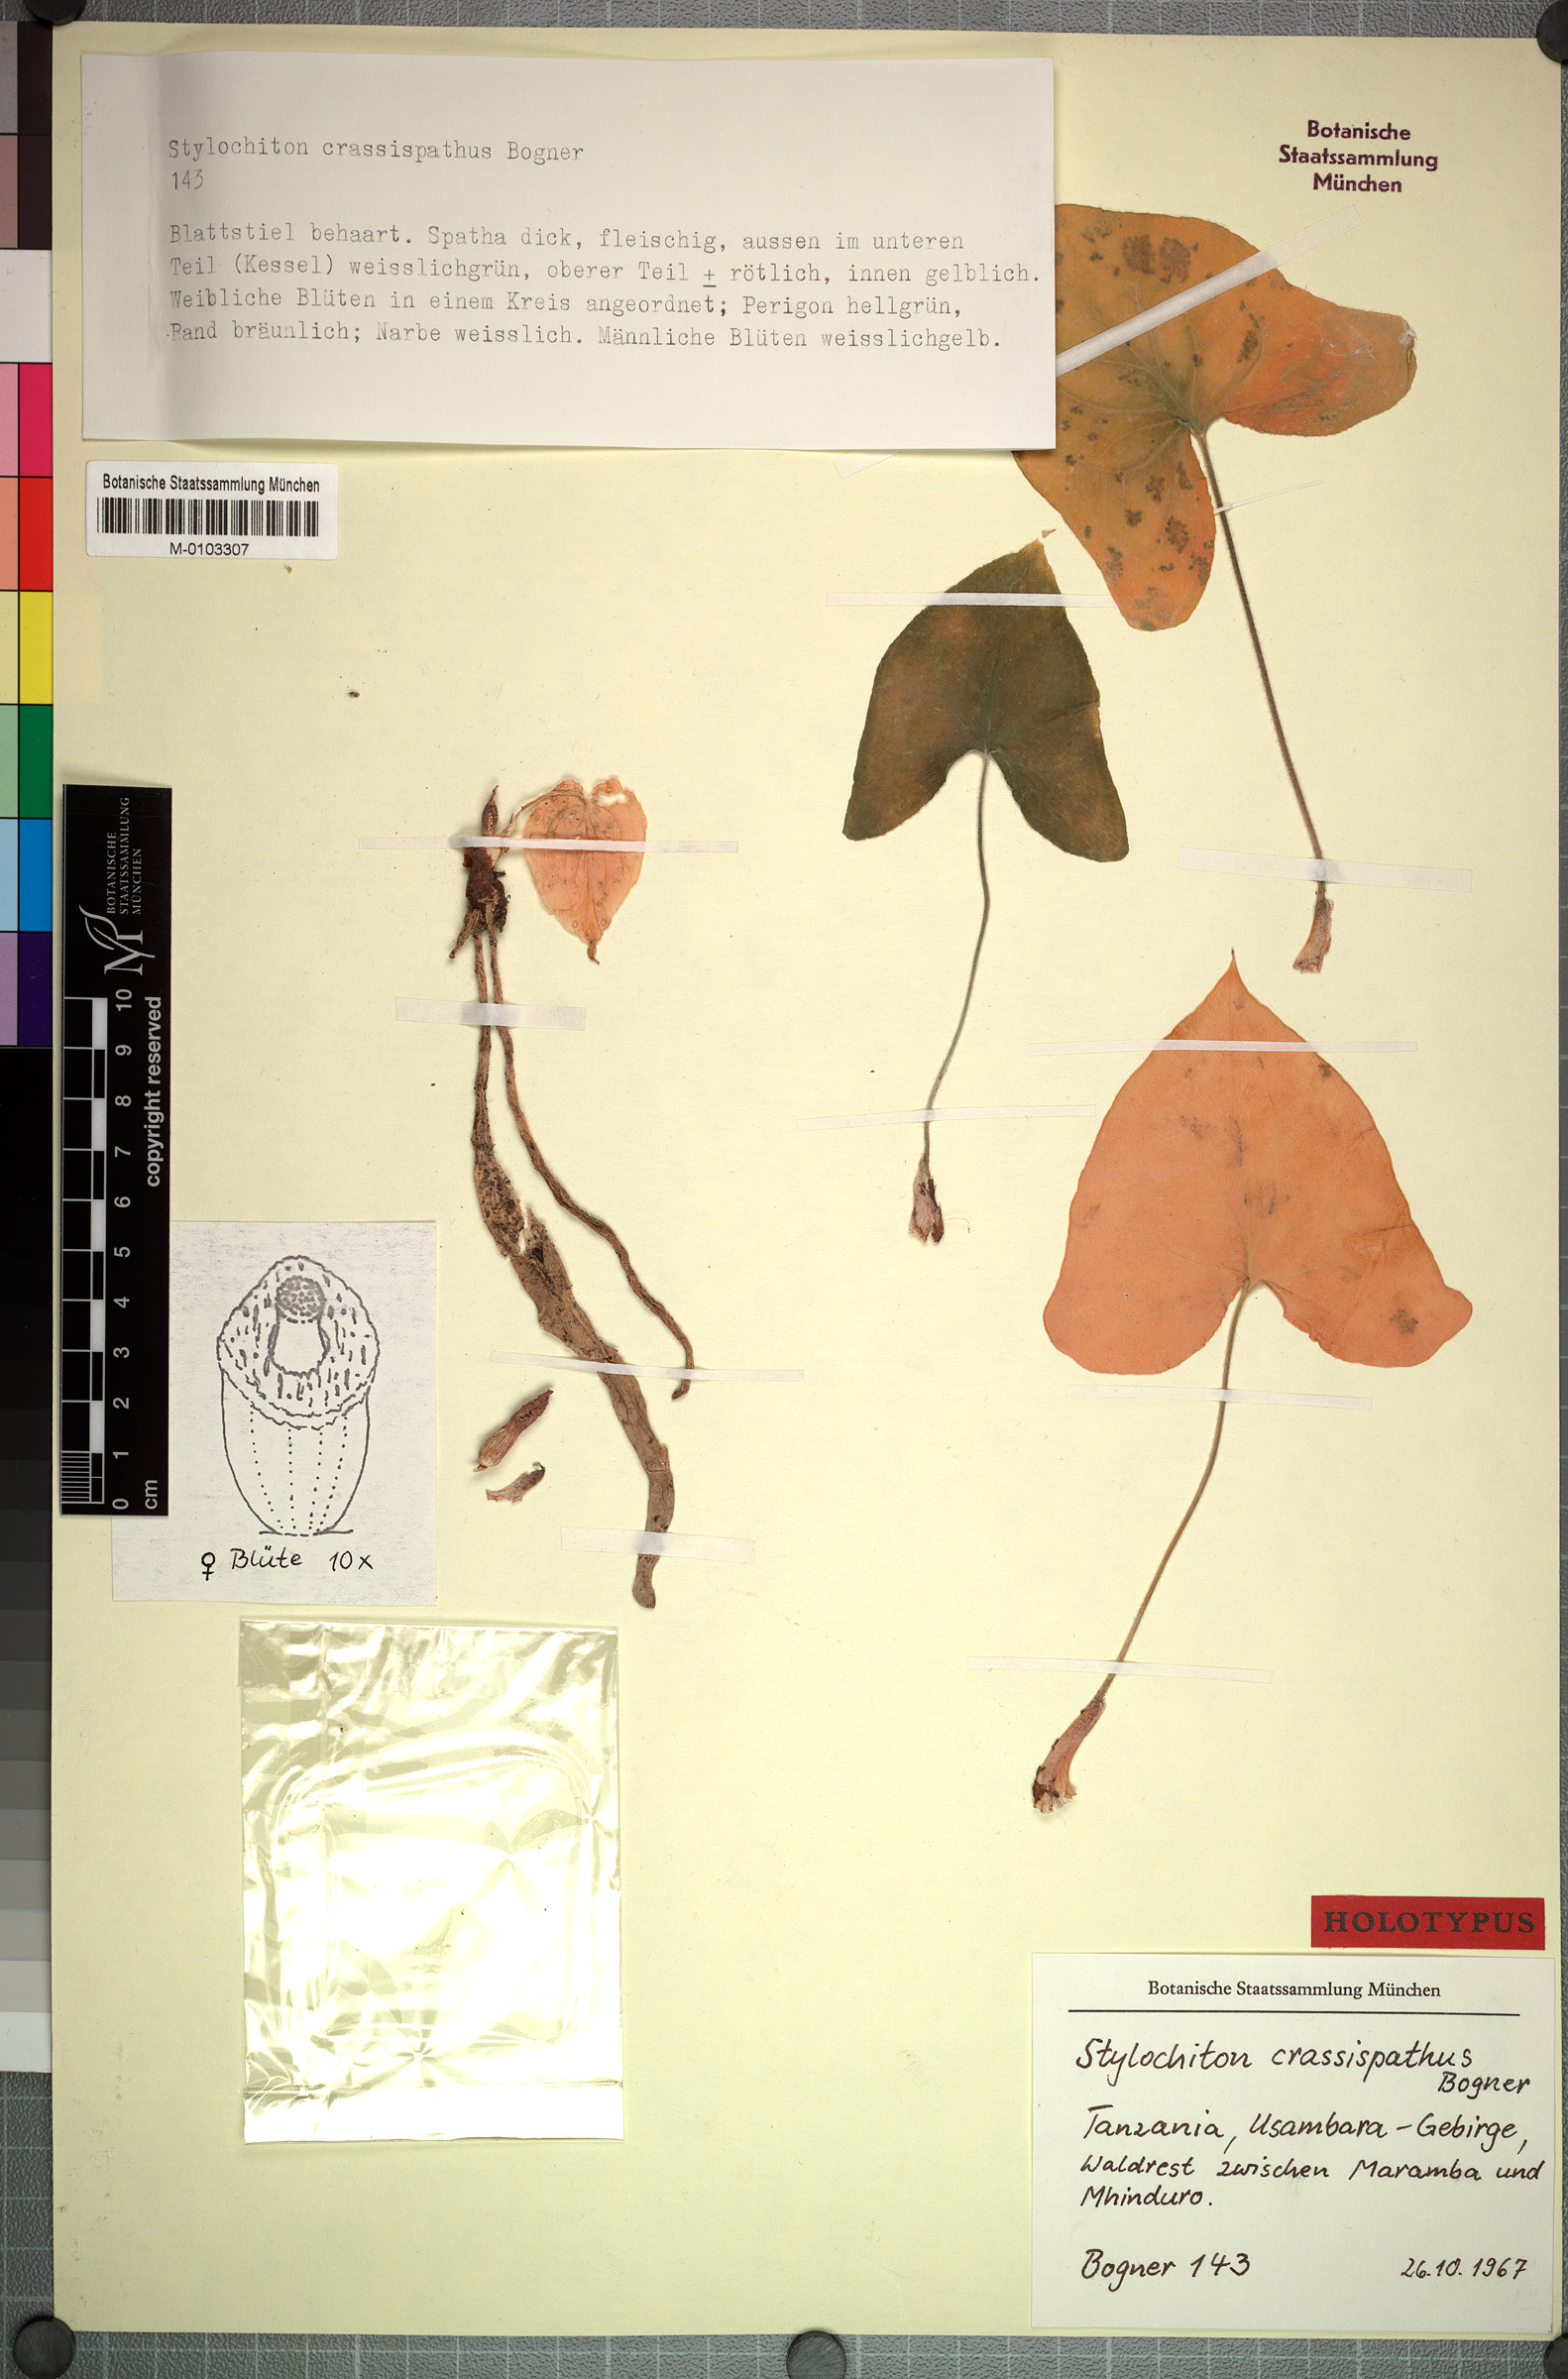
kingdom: Plantae
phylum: Tracheophyta
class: Liliopsida
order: Alismatales
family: Araceae
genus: Stylochaeton
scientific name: Stylochaeton crassispathum
